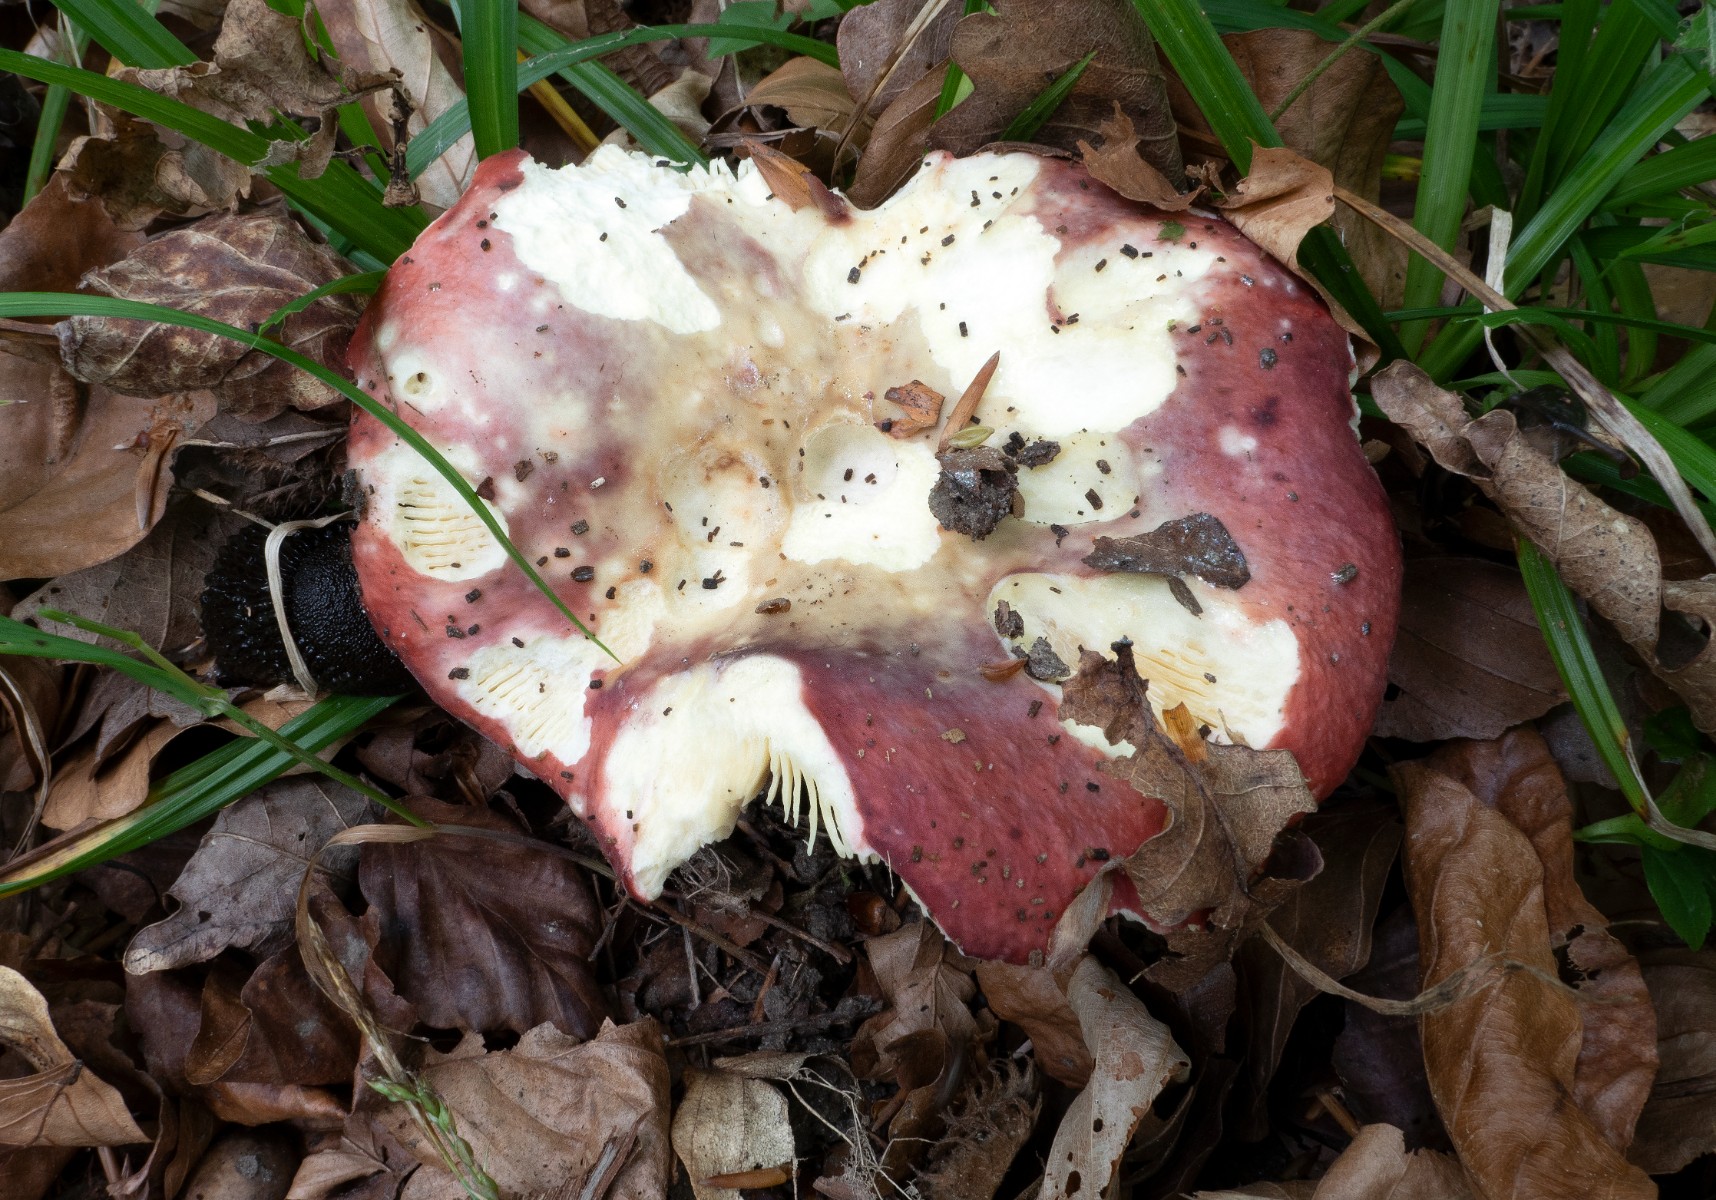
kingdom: Fungi
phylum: Basidiomycota
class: Agaricomycetes
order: Russulales
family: Russulaceae
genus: Russula
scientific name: Russula romellii
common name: romells skørhat
